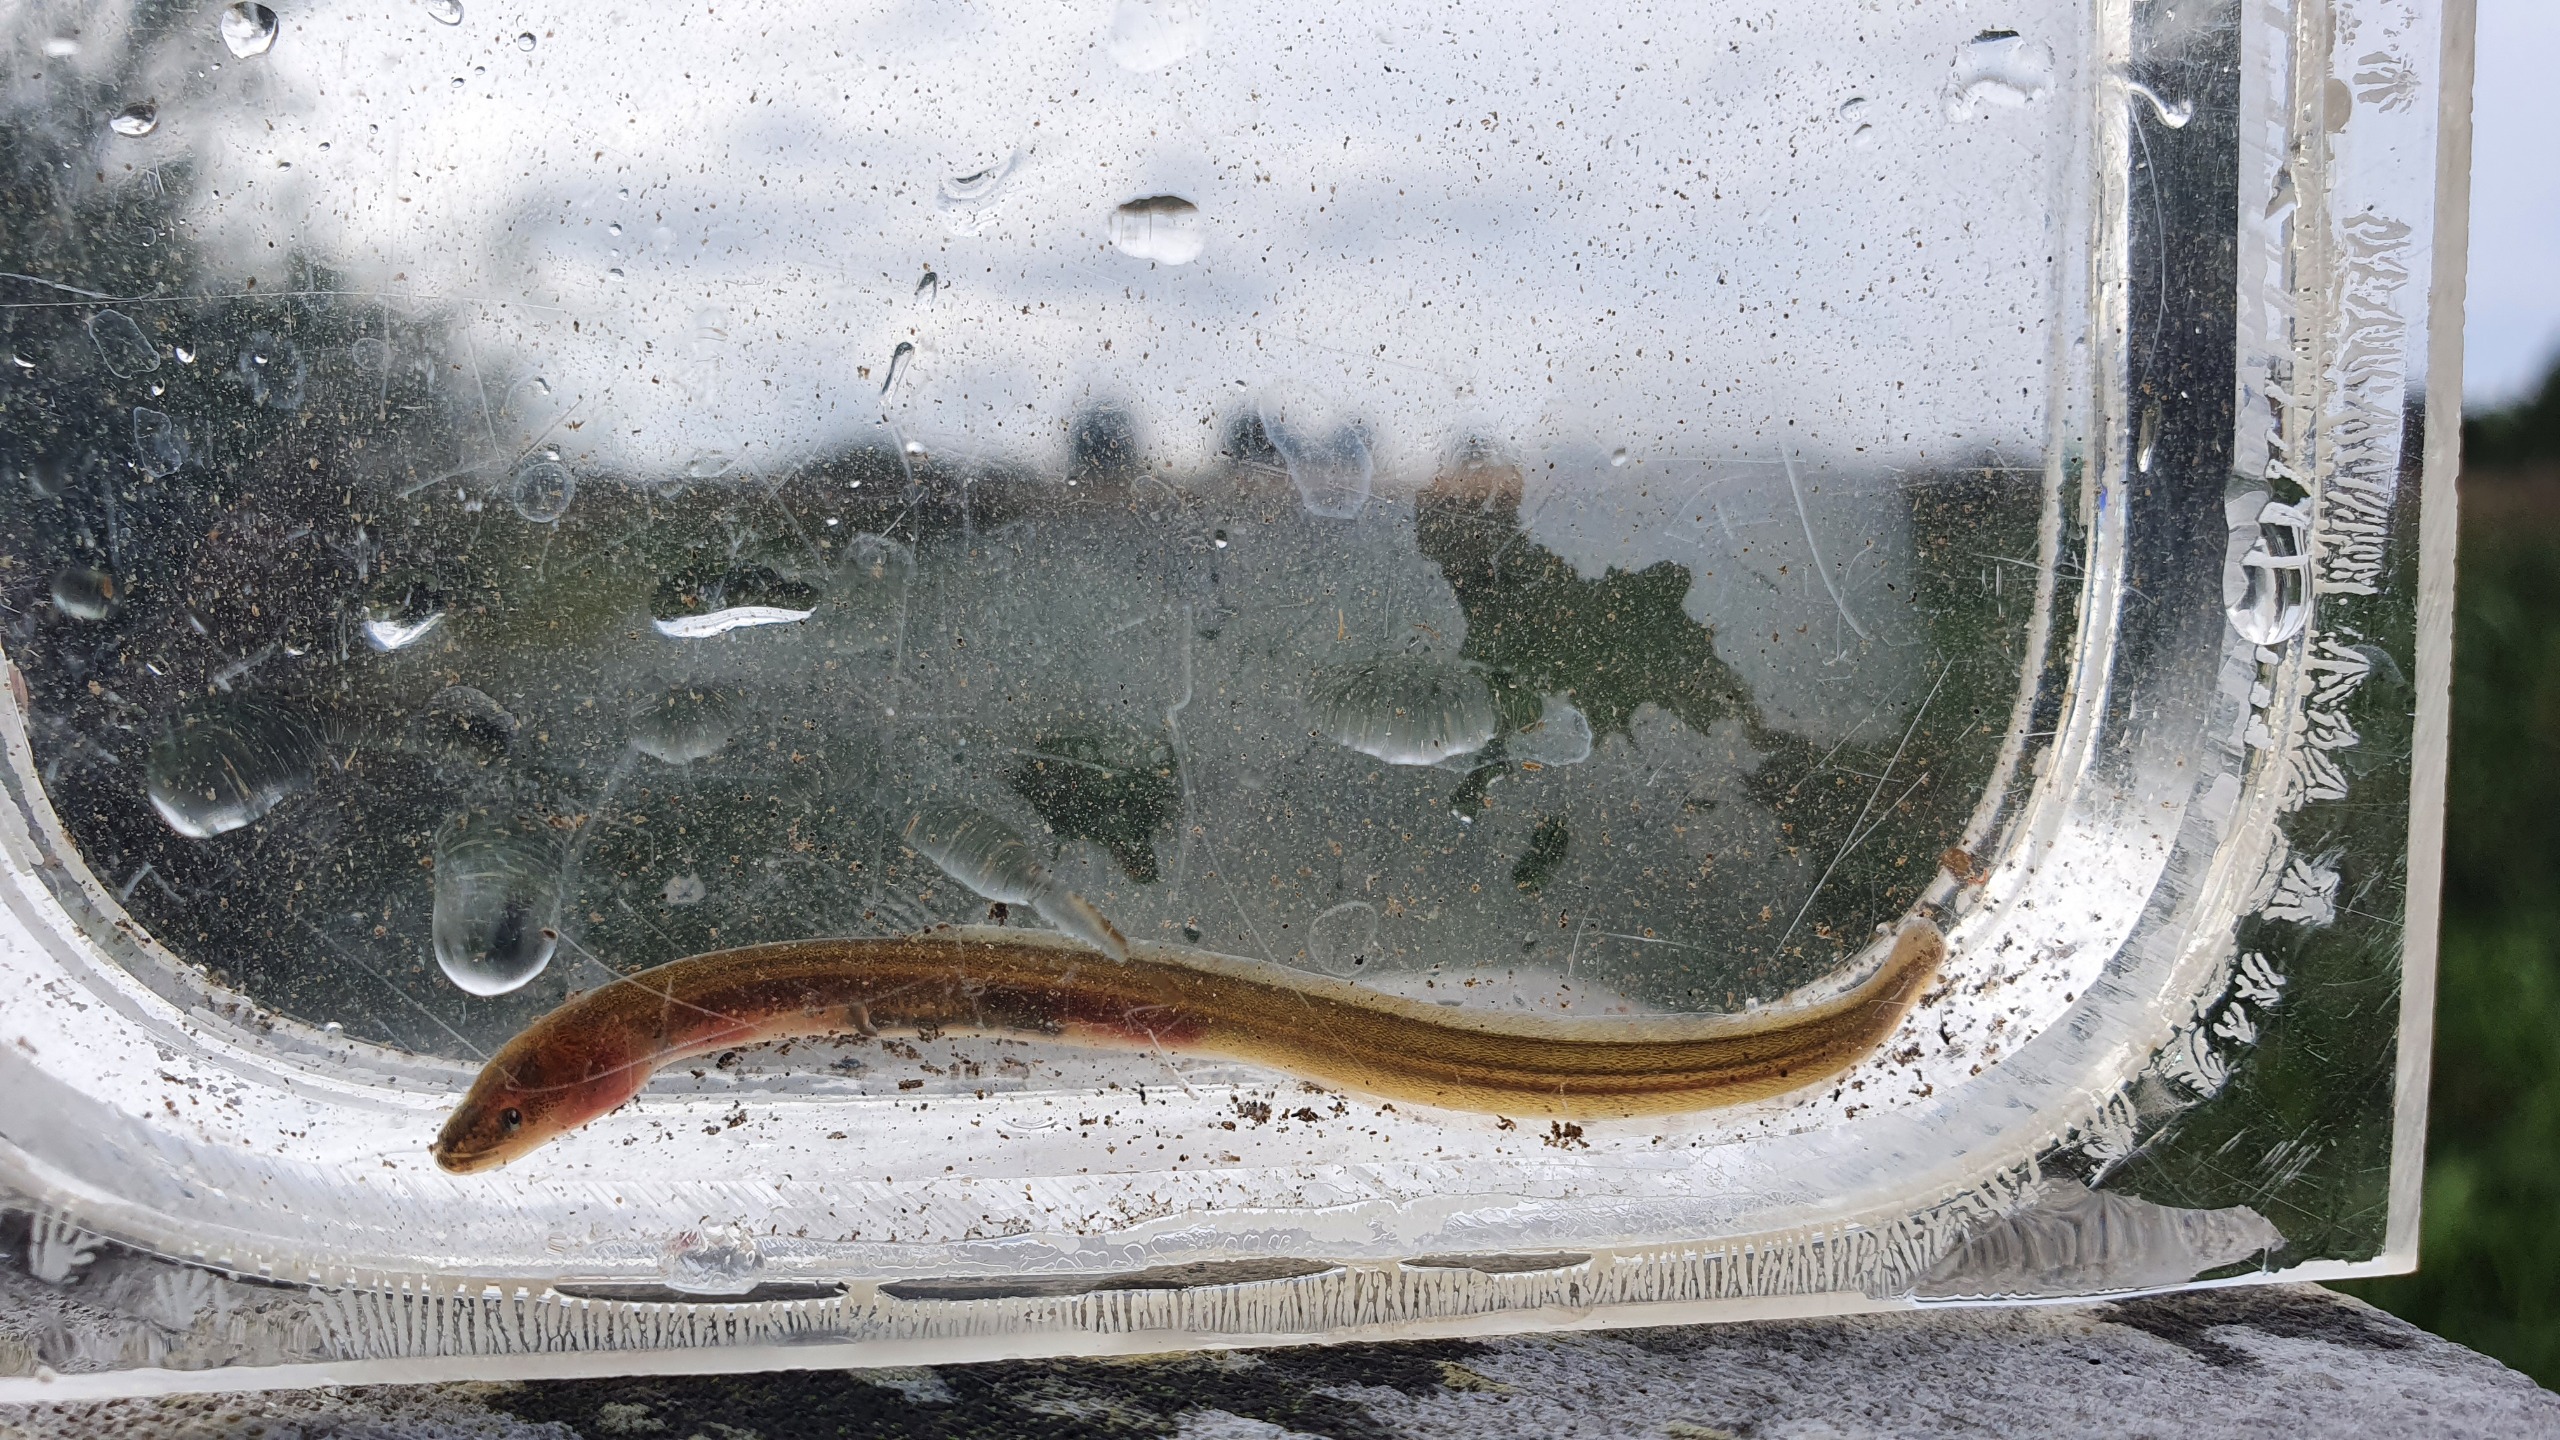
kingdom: Animalia
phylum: Chordata
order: Anguilliformes
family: Anguillidae
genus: Anguilla
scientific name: Anguilla anguilla
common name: Europæisk ål
